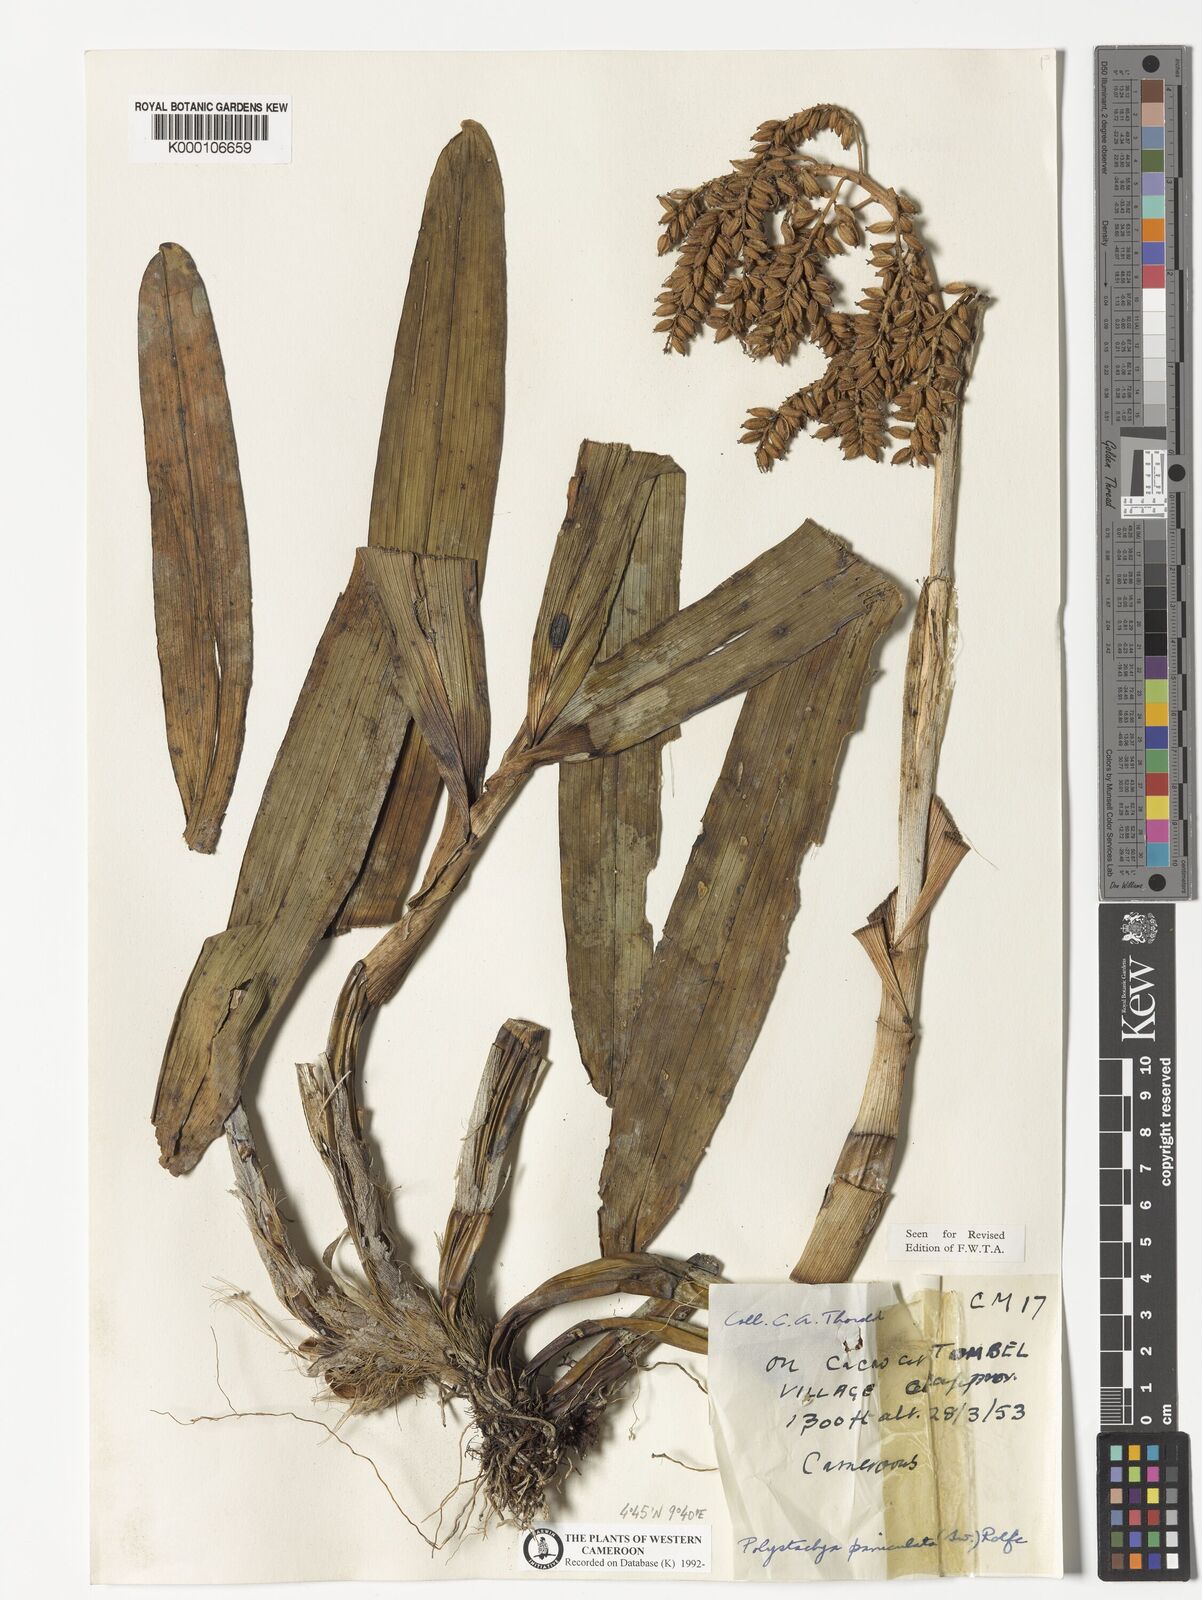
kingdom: Plantae
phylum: Tracheophyta
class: Liliopsida
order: Asparagales
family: Orchidaceae
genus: Polystachya
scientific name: Polystachya paniculata
